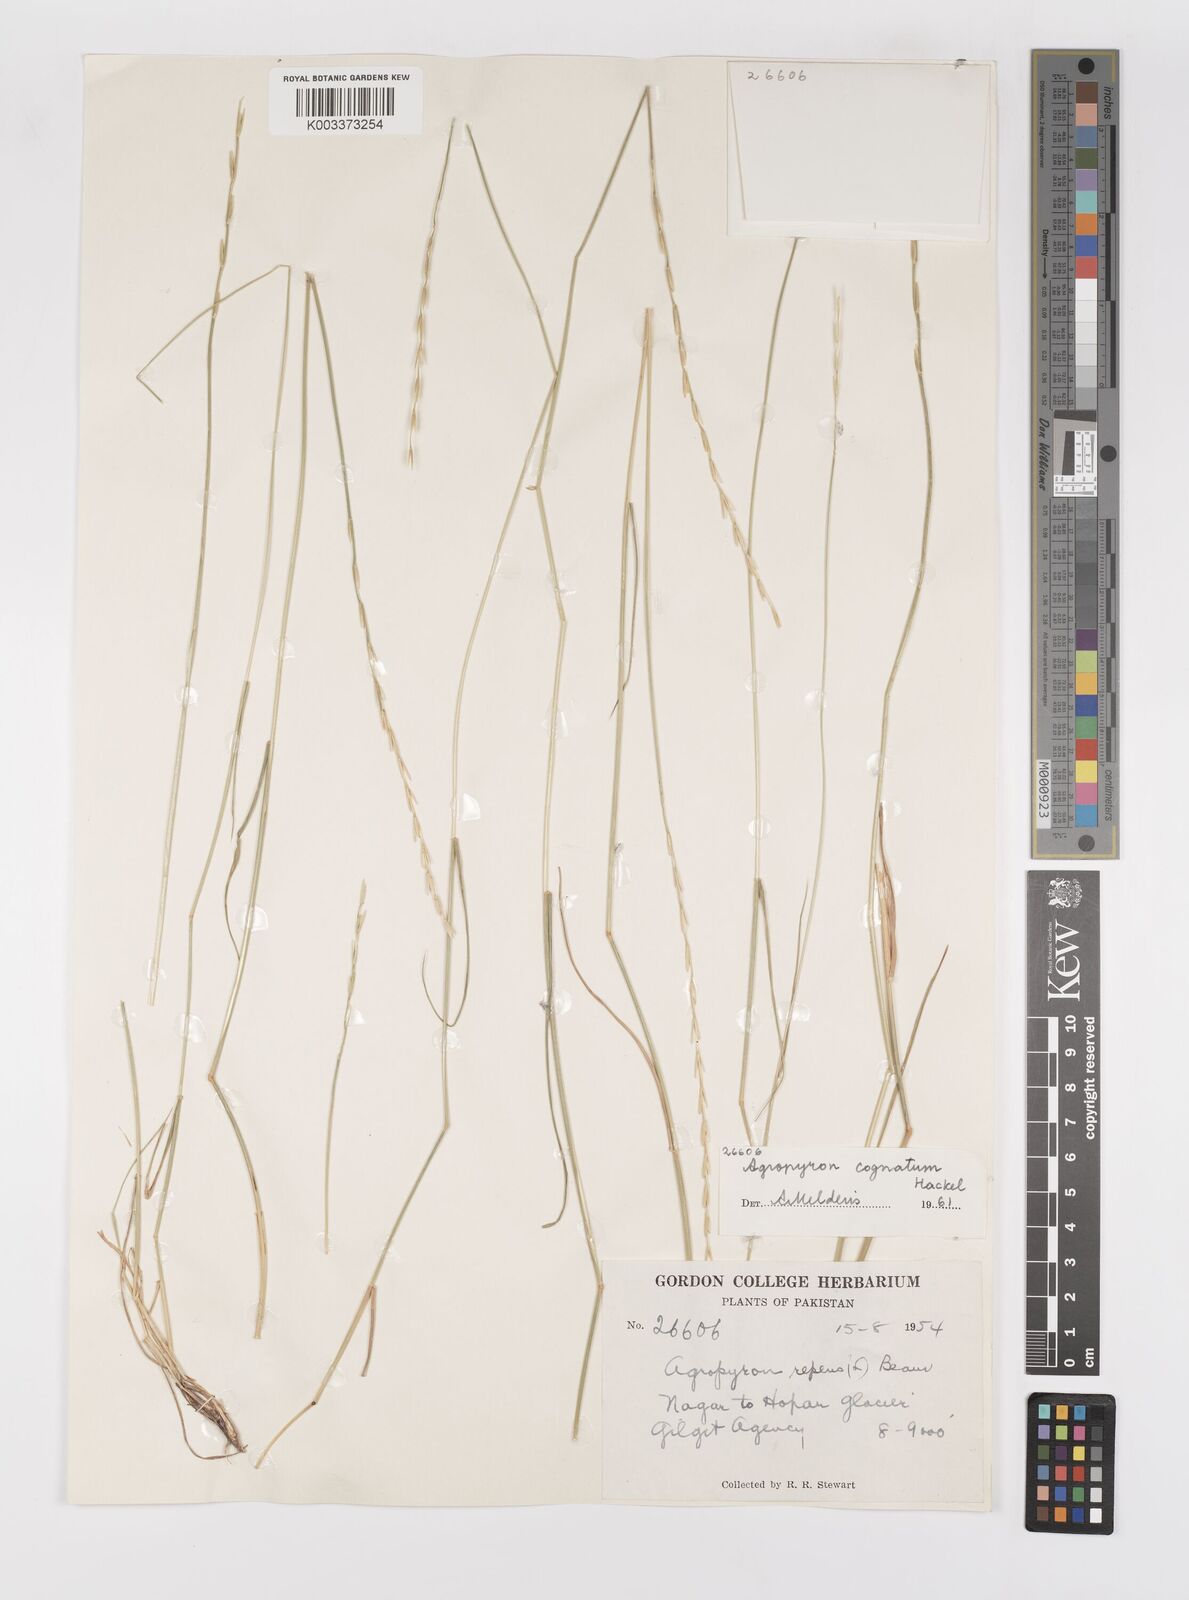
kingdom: Plantae
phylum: Tracheophyta
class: Liliopsida
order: Poales
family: Poaceae
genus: Pseudoroegneria
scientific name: Pseudoroegneria cognata
